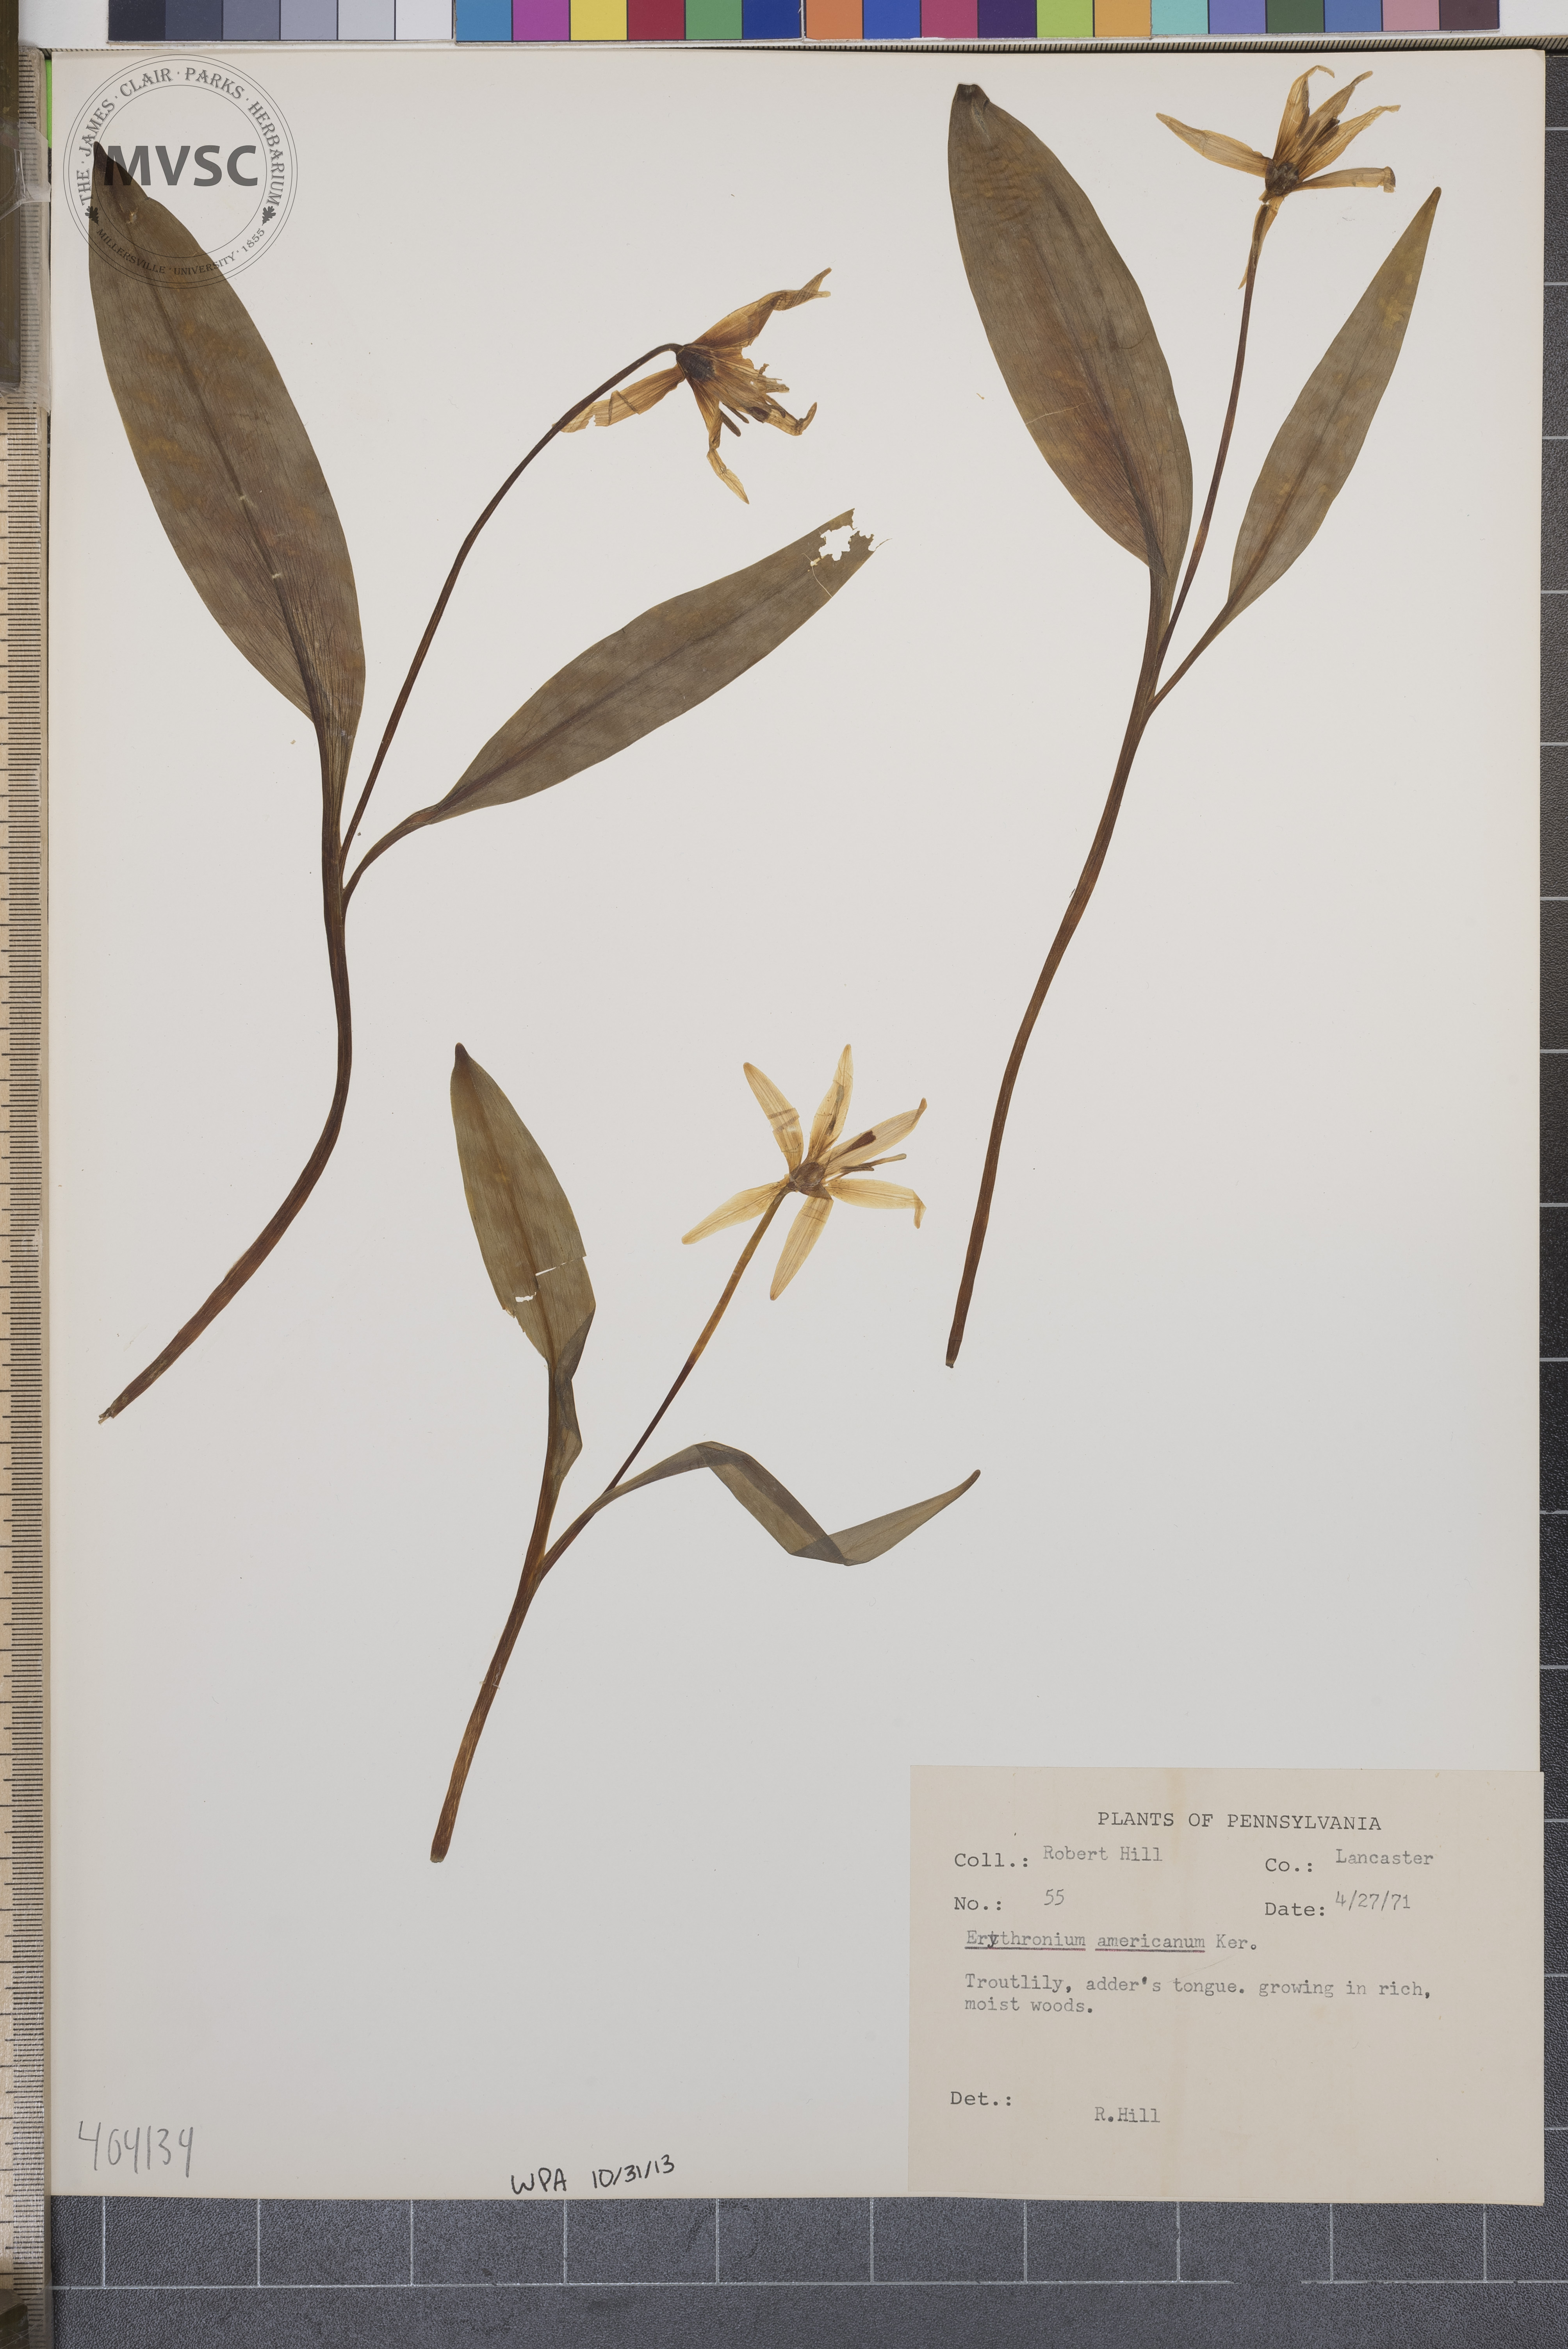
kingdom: Plantae
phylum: Tracheophyta
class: Liliopsida
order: Liliales
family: Liliaceae
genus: Erythronium
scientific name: Erythronium americanum
